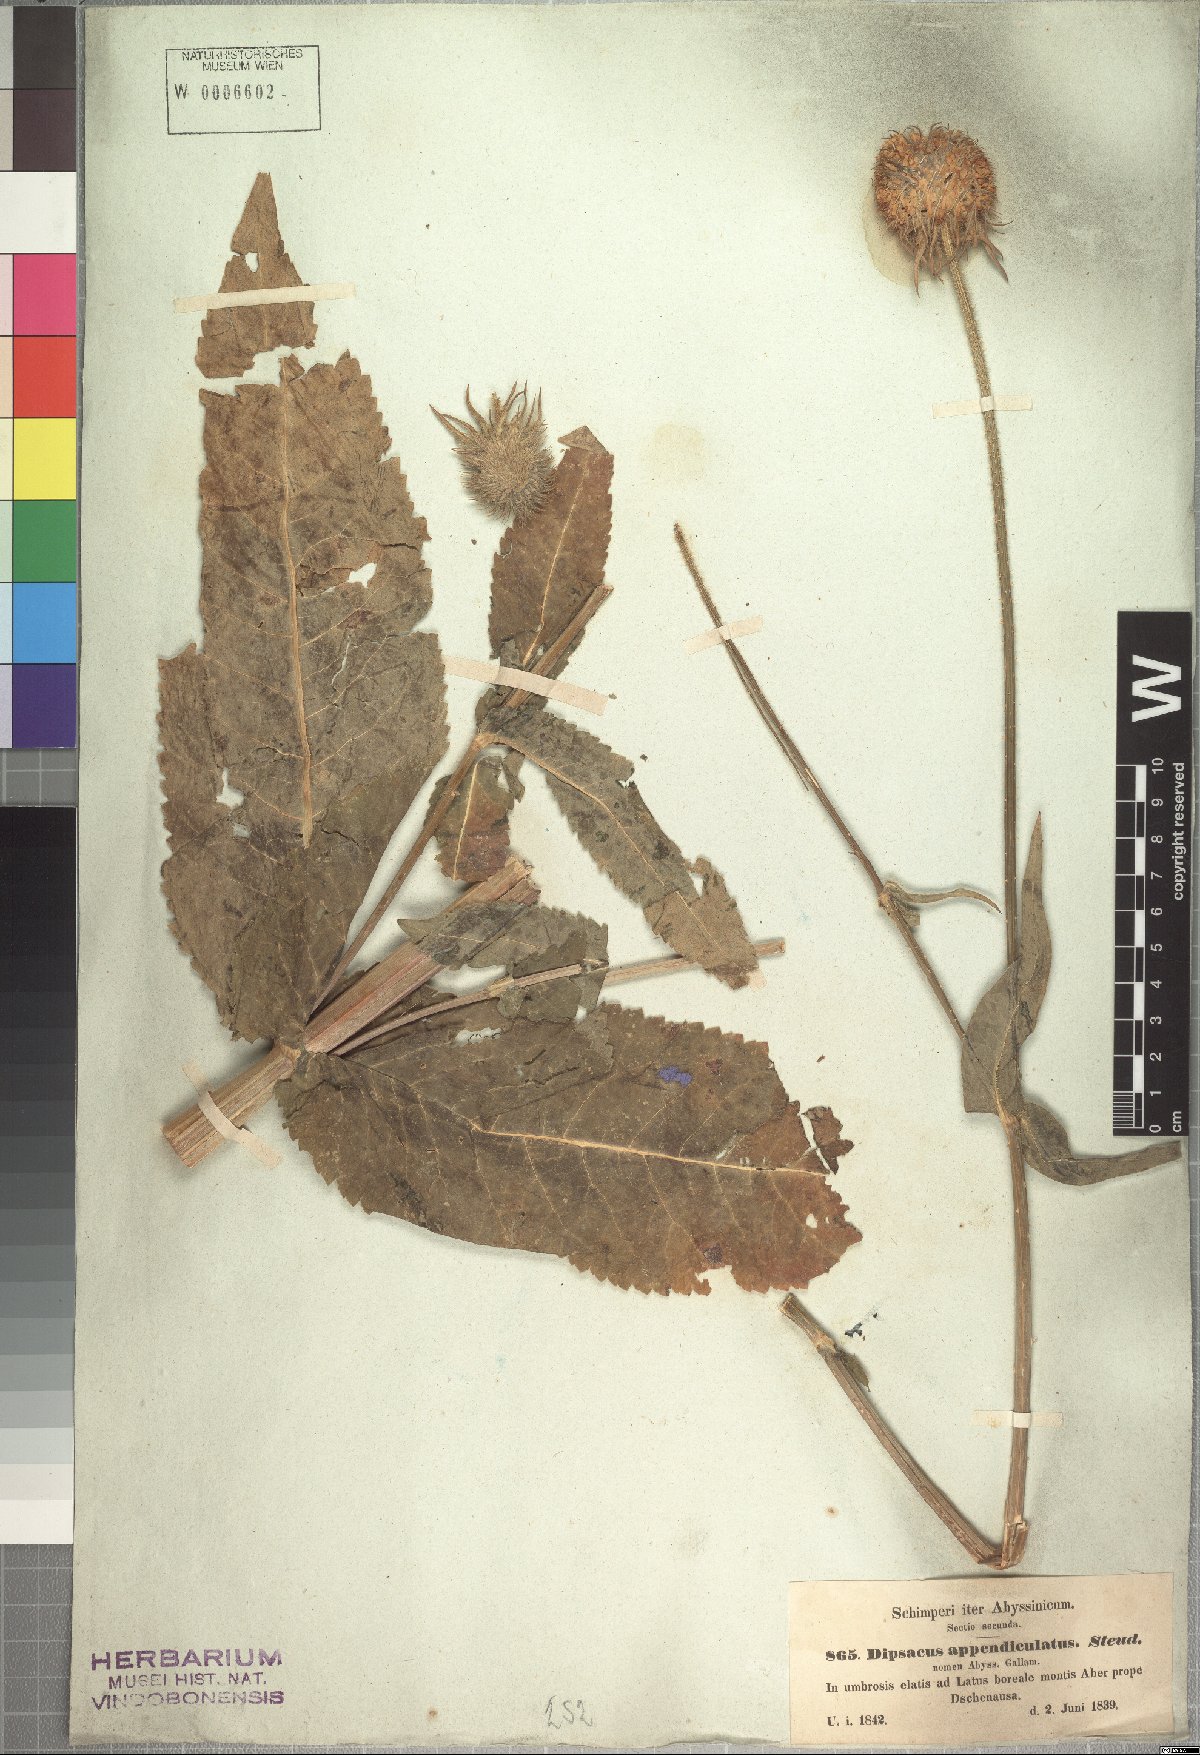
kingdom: Plantae
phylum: Tracheophyta
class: Magnoliopsida
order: Dipsacales
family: Caprifoliaceae
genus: Dipsacus
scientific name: Dipsacus pinnatifidus
